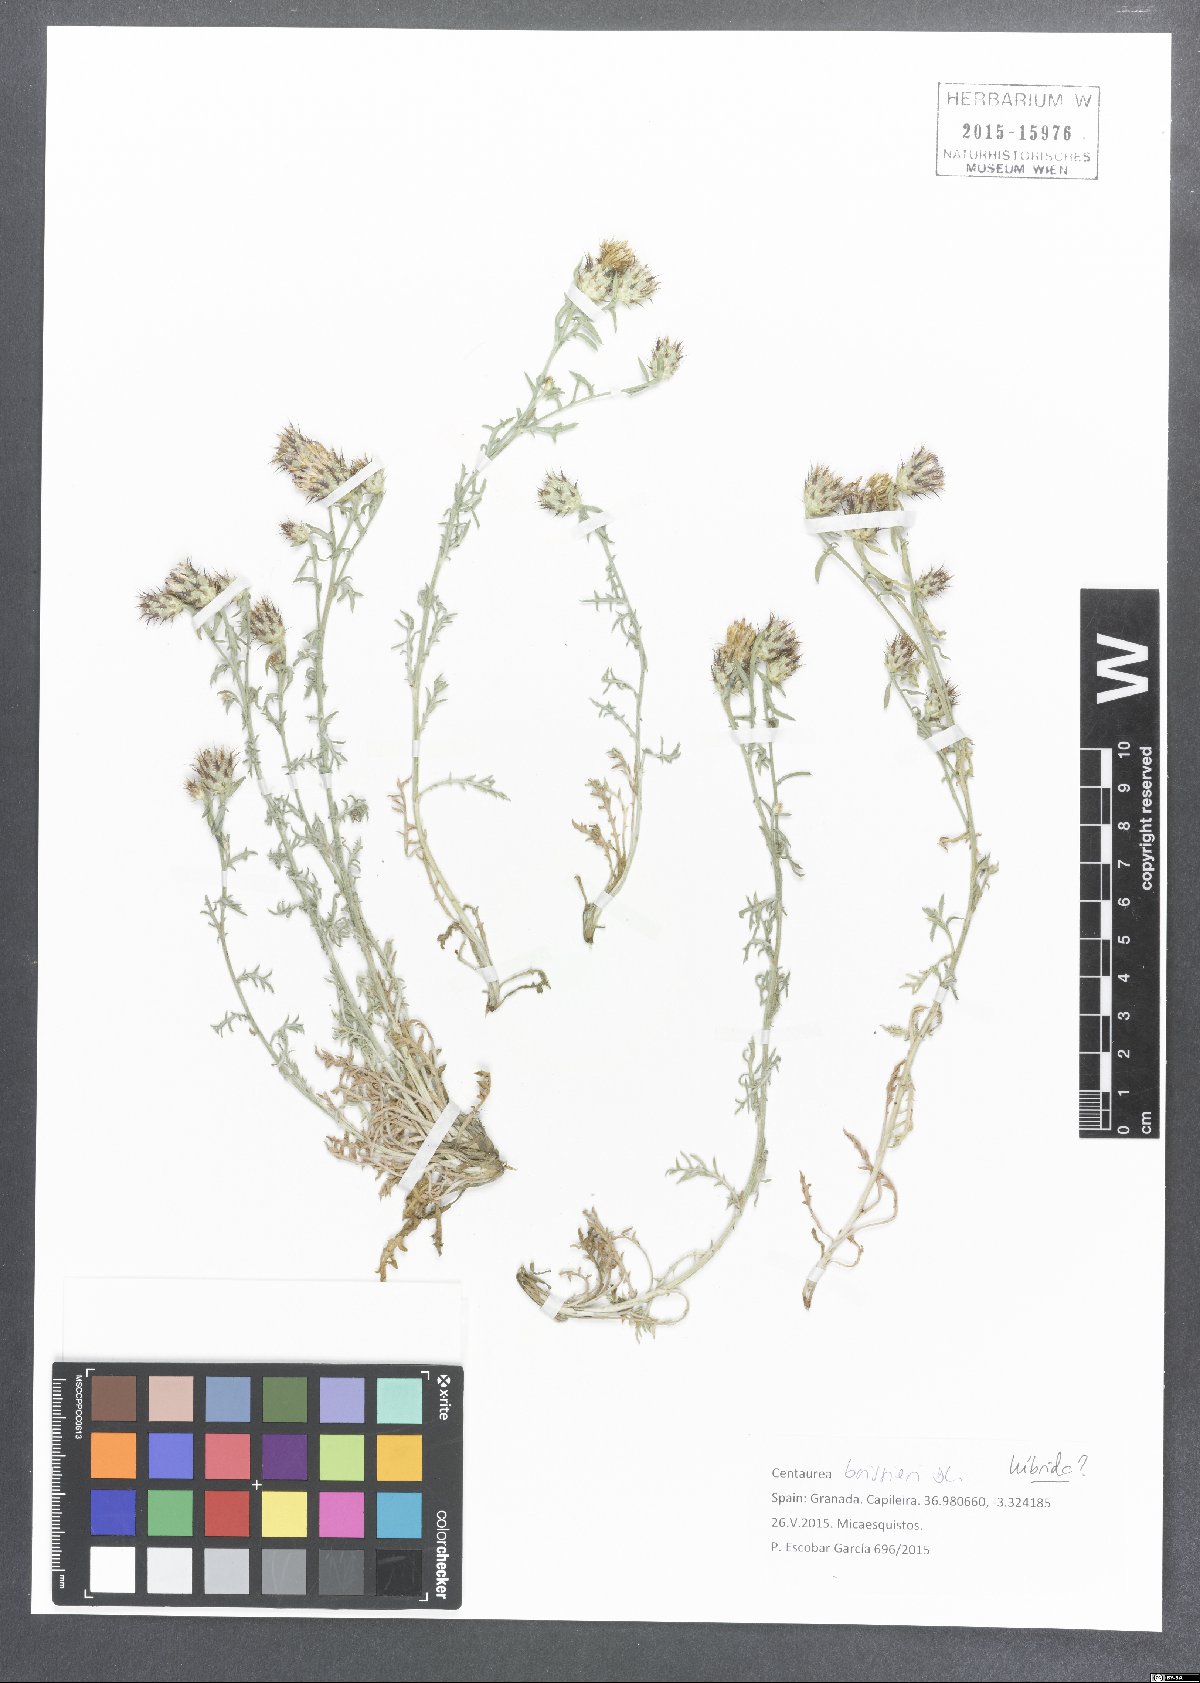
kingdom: Plantae
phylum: Tracheophyta
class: Magnoliopsida
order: Asterales
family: Asteraceae
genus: Centaurea
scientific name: Centaurea boissieri
